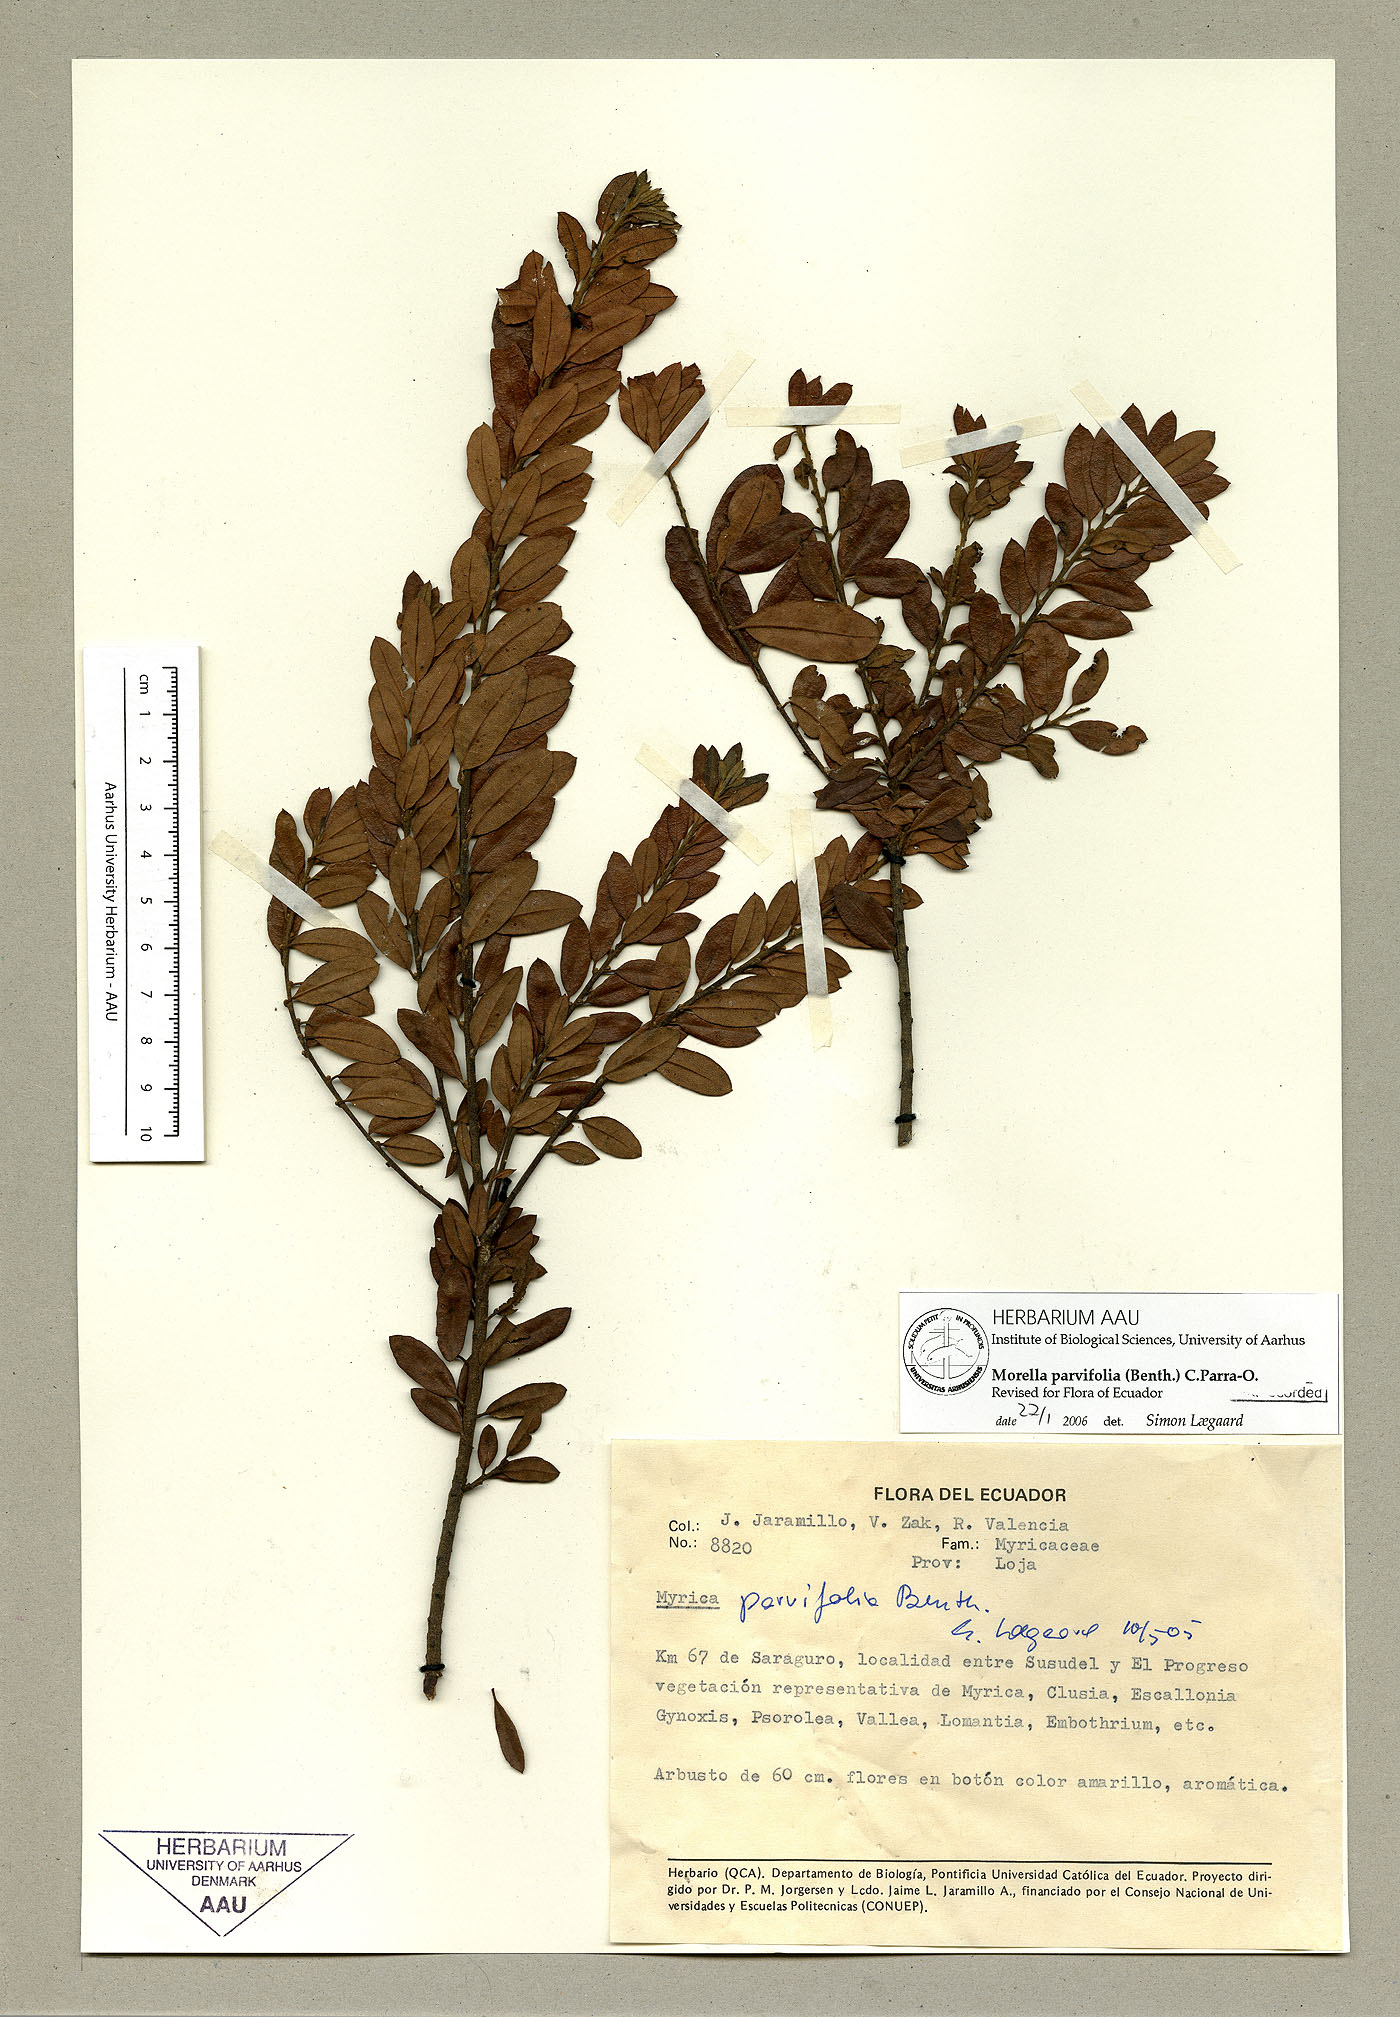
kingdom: Plantae
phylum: Tracheophyta
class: Magnoliopsida
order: Fagales
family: Myricaceae
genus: Morella
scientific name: Morella parvifolia
